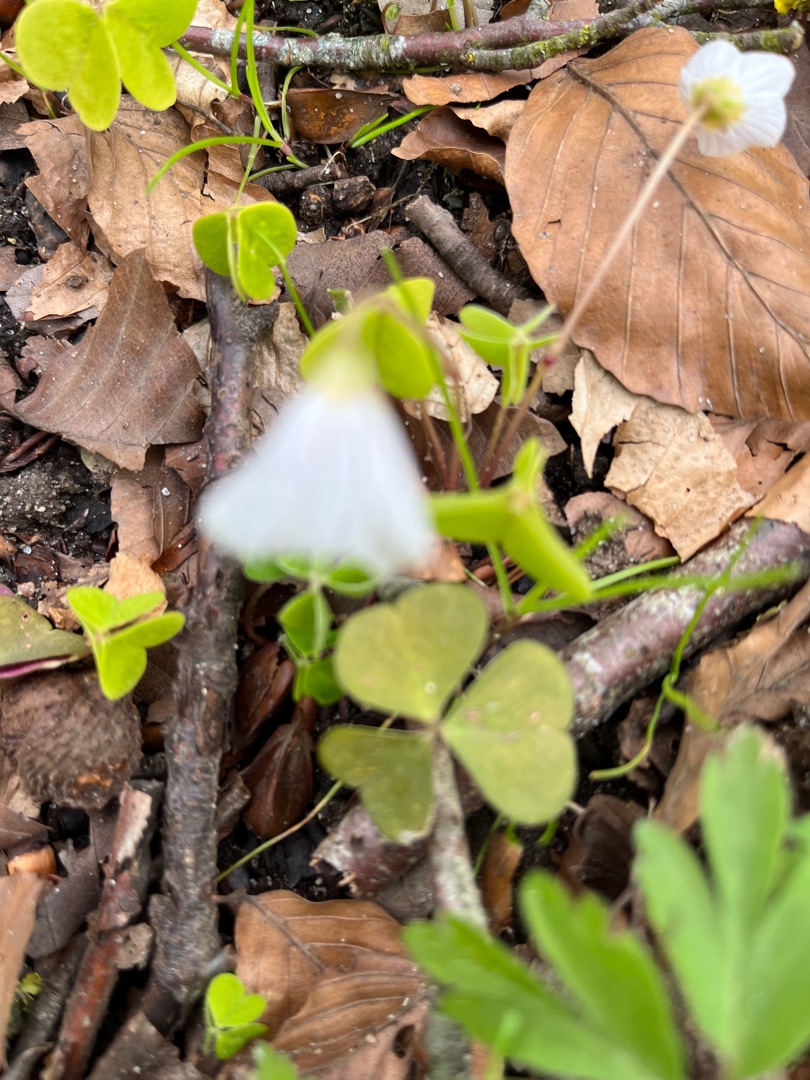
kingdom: Plantae
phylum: Tracheophyta
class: Magnoliopsida
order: Oxalidales
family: Oxalidaceae
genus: Oxalis
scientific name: Oxalis acetosella
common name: Skovsyre
